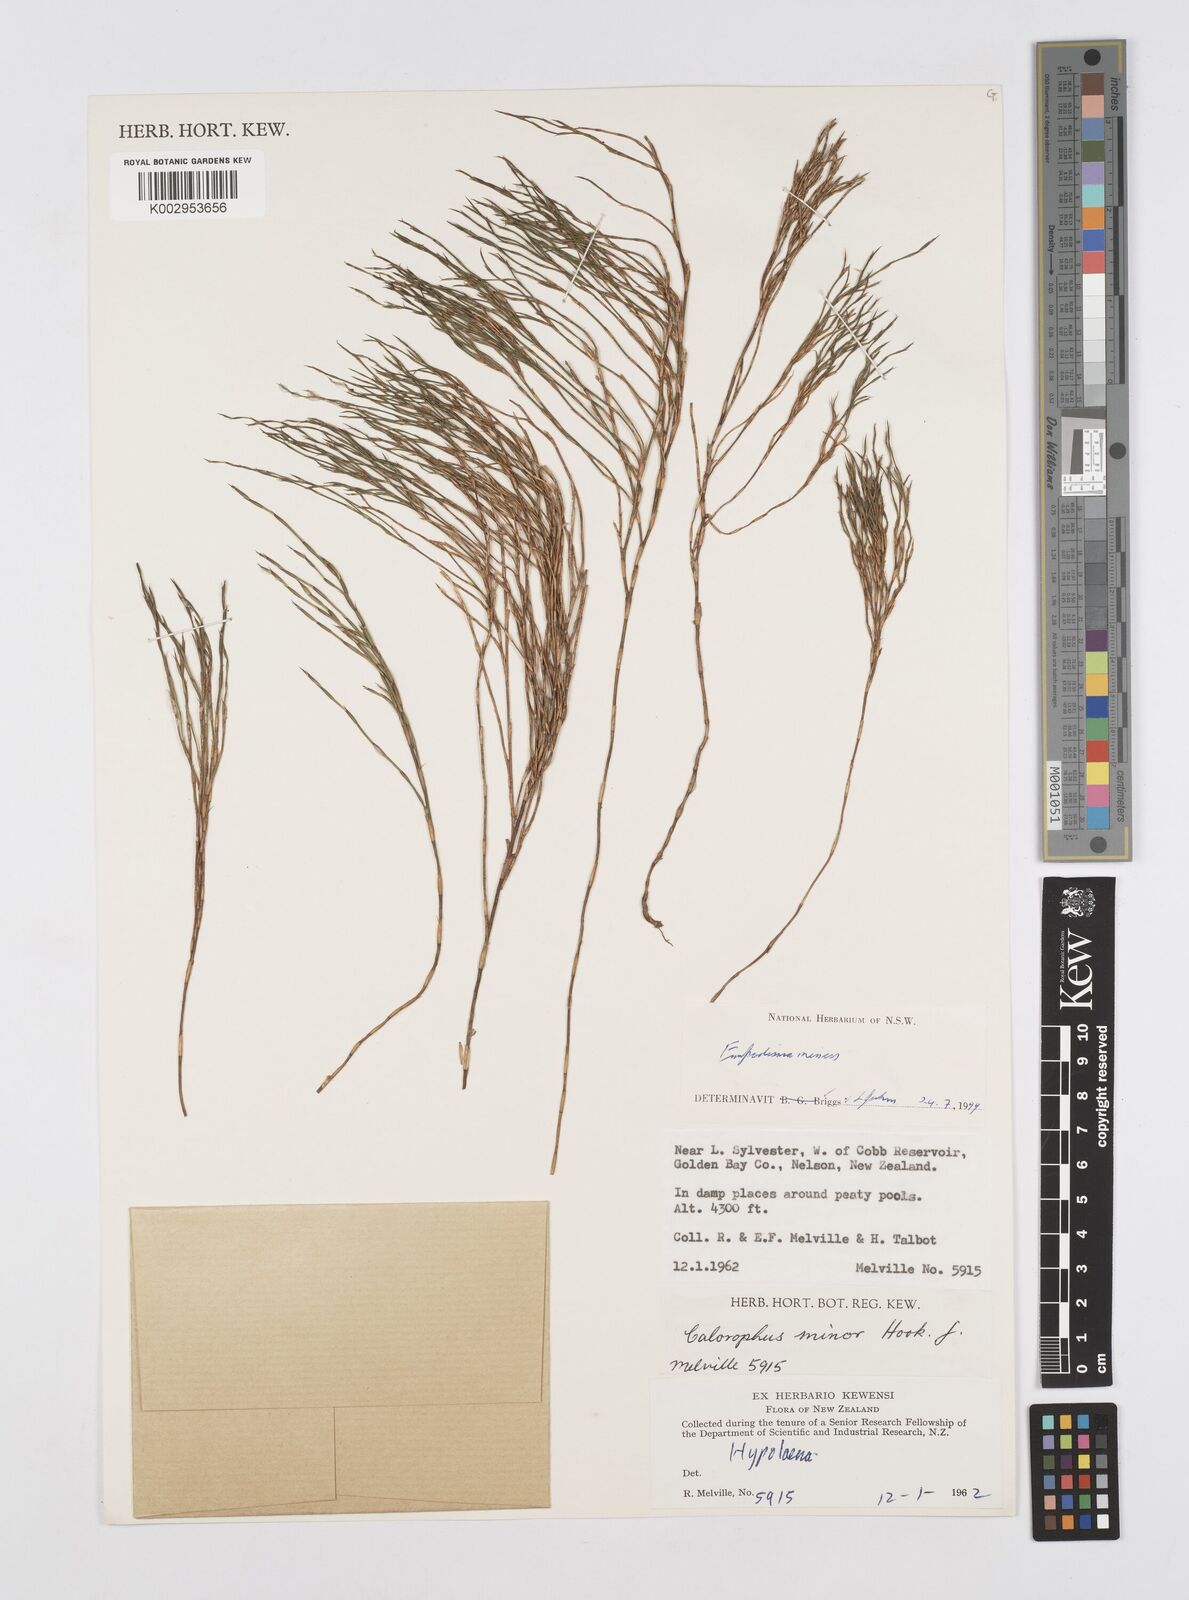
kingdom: Plantae
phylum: Tracheophyta
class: Liliopsida
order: Poales
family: Restionaceae
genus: Empodisma
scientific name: Empodisma minus
